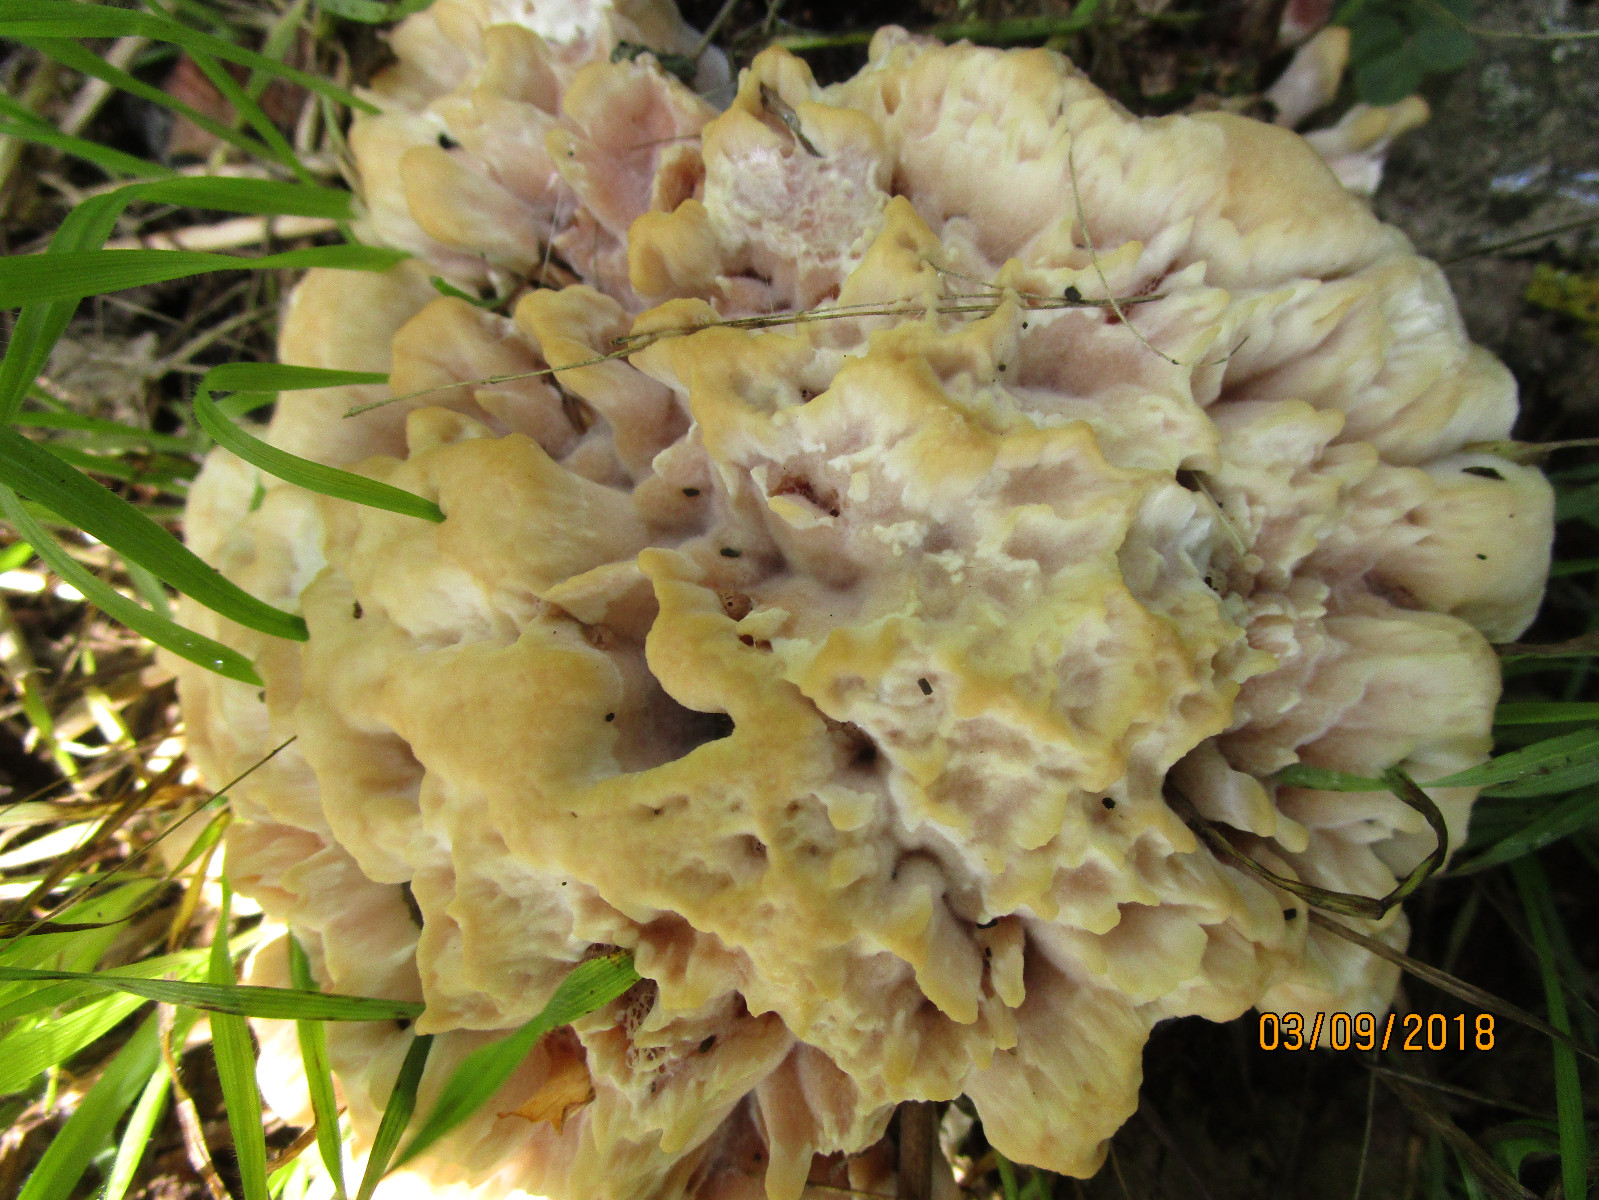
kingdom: Fungi
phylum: Basidiomycota
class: Agaricomycetes
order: Polyporales
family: Podoscyphaceae
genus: Abortiporus
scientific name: Abortiporus biennis
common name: rødmende pjalteporesvamp
